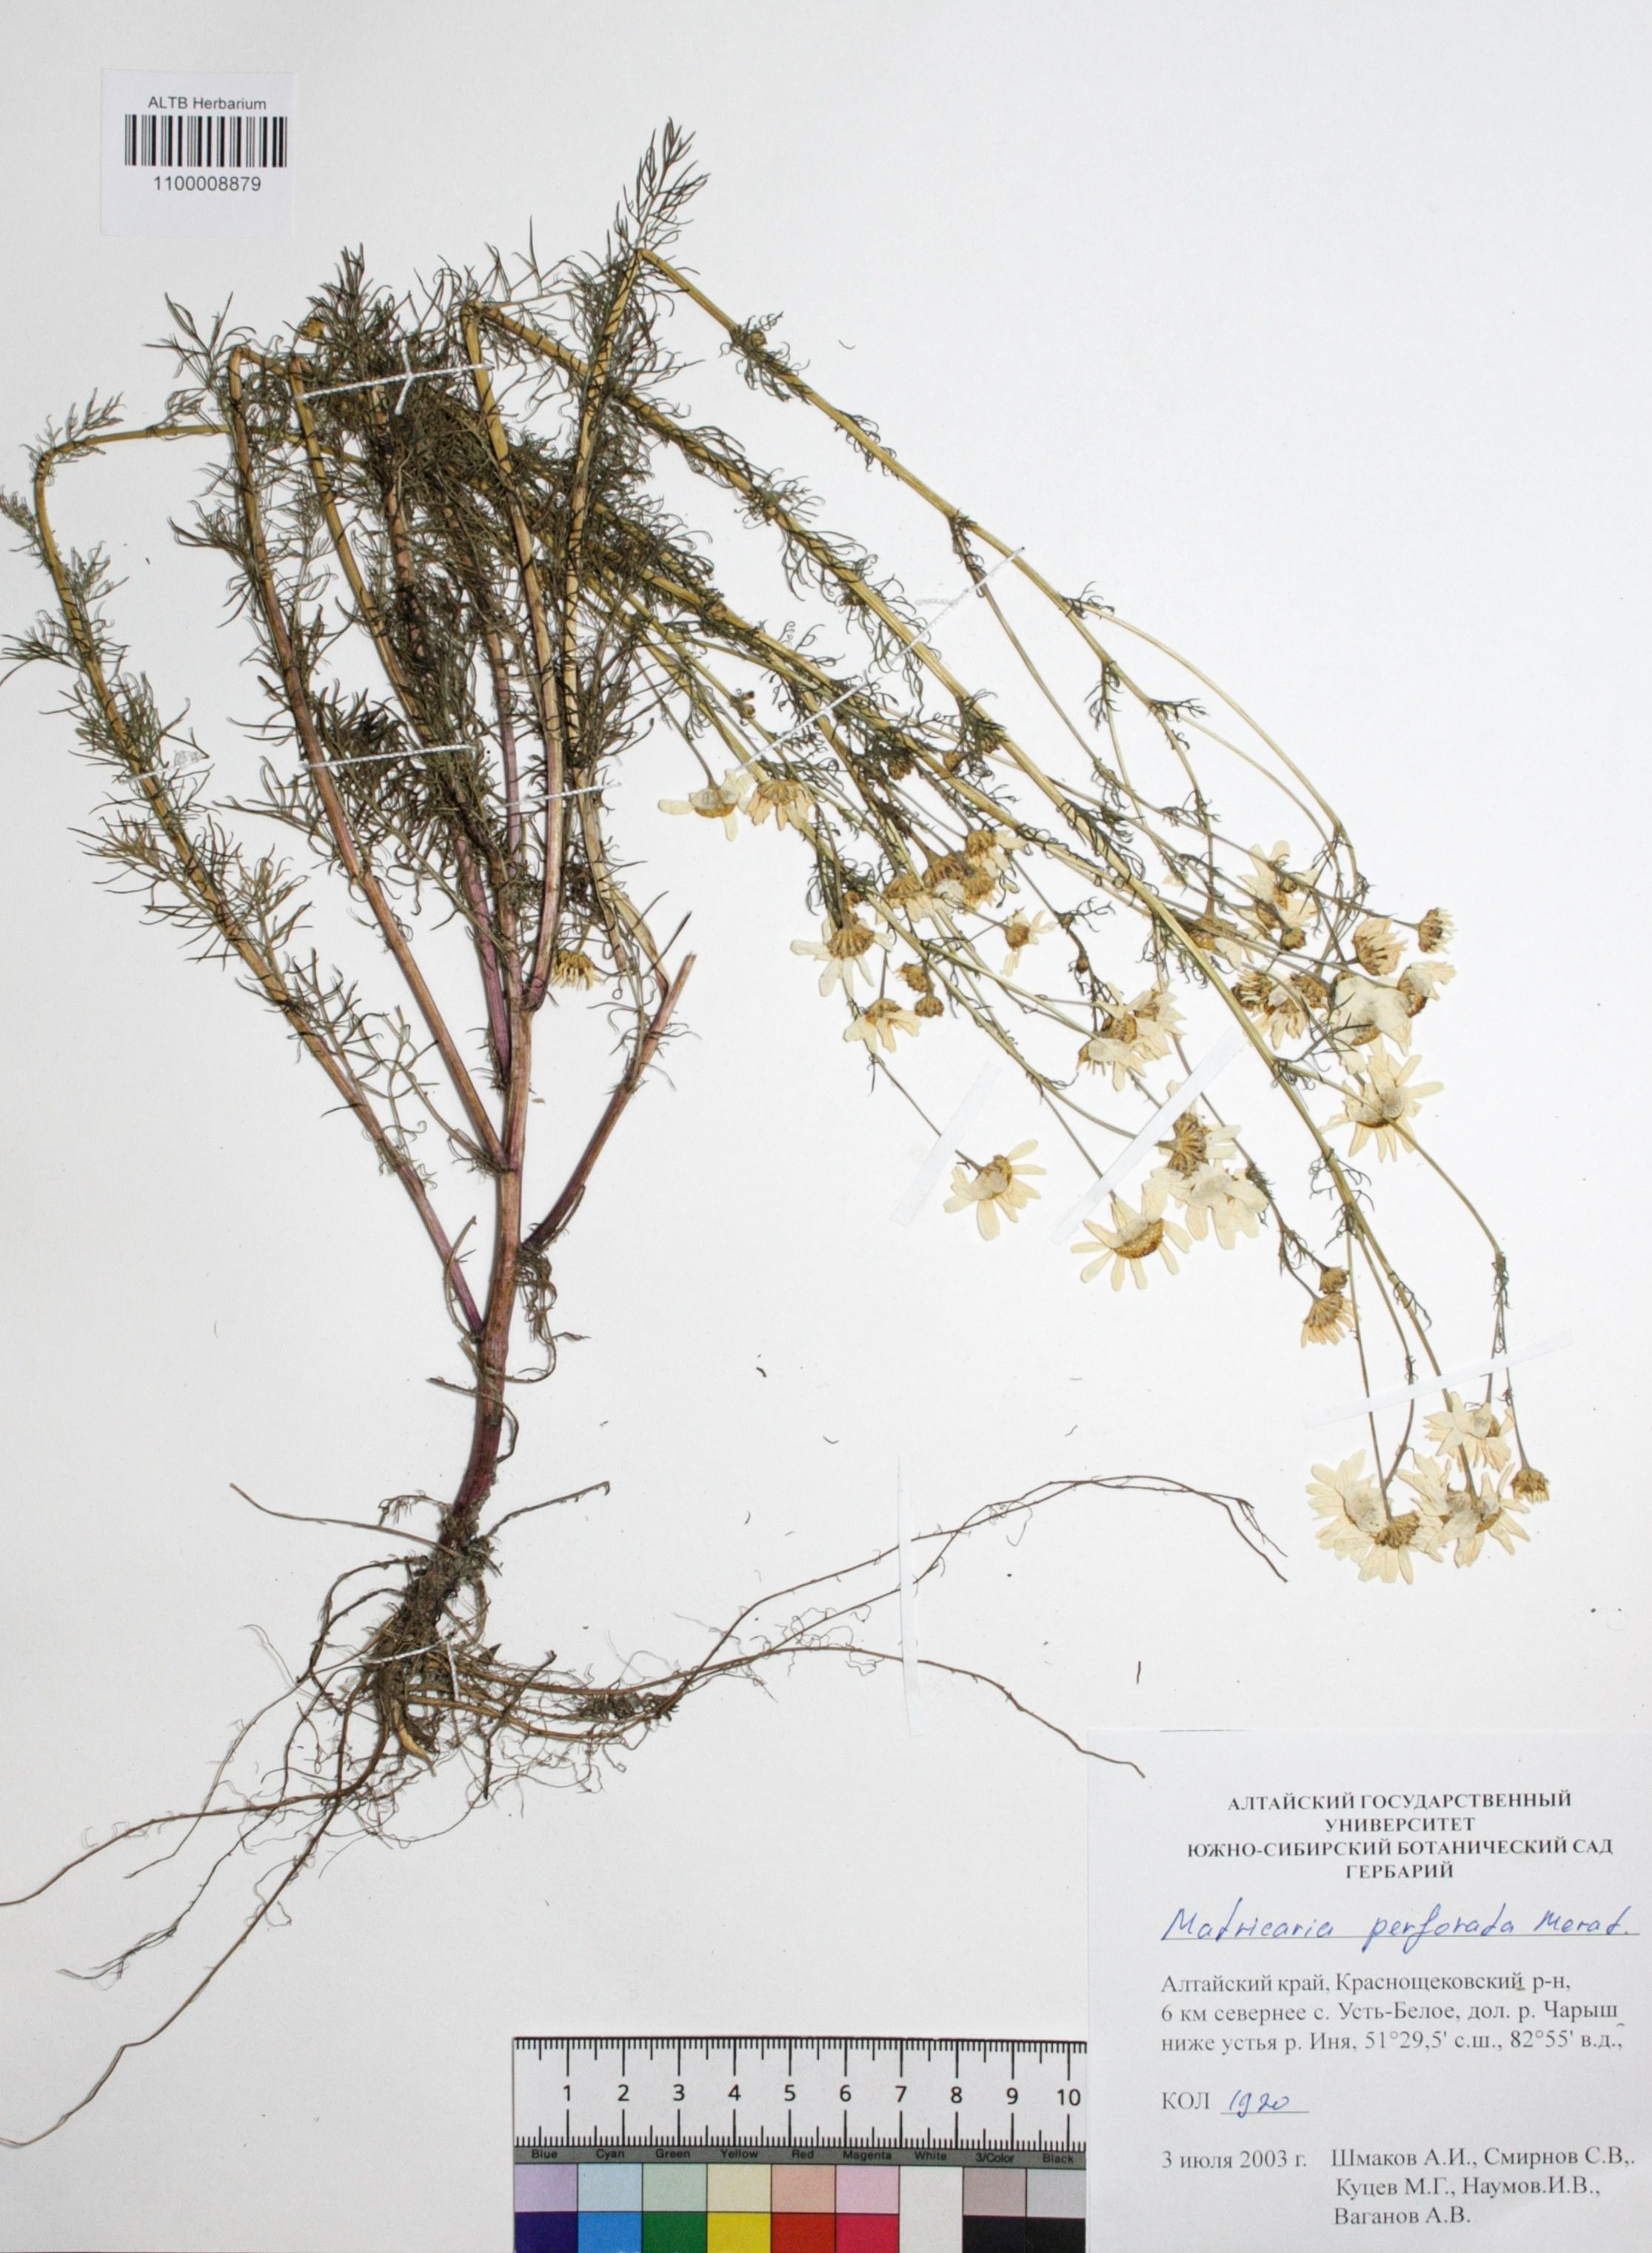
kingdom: Plantae
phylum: Tracheophyta
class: Magnoliopsida
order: Asterales
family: Asteraceae
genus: Tripleurospermum
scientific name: Tripleurospermum inodorum
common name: Scentless mayweed
